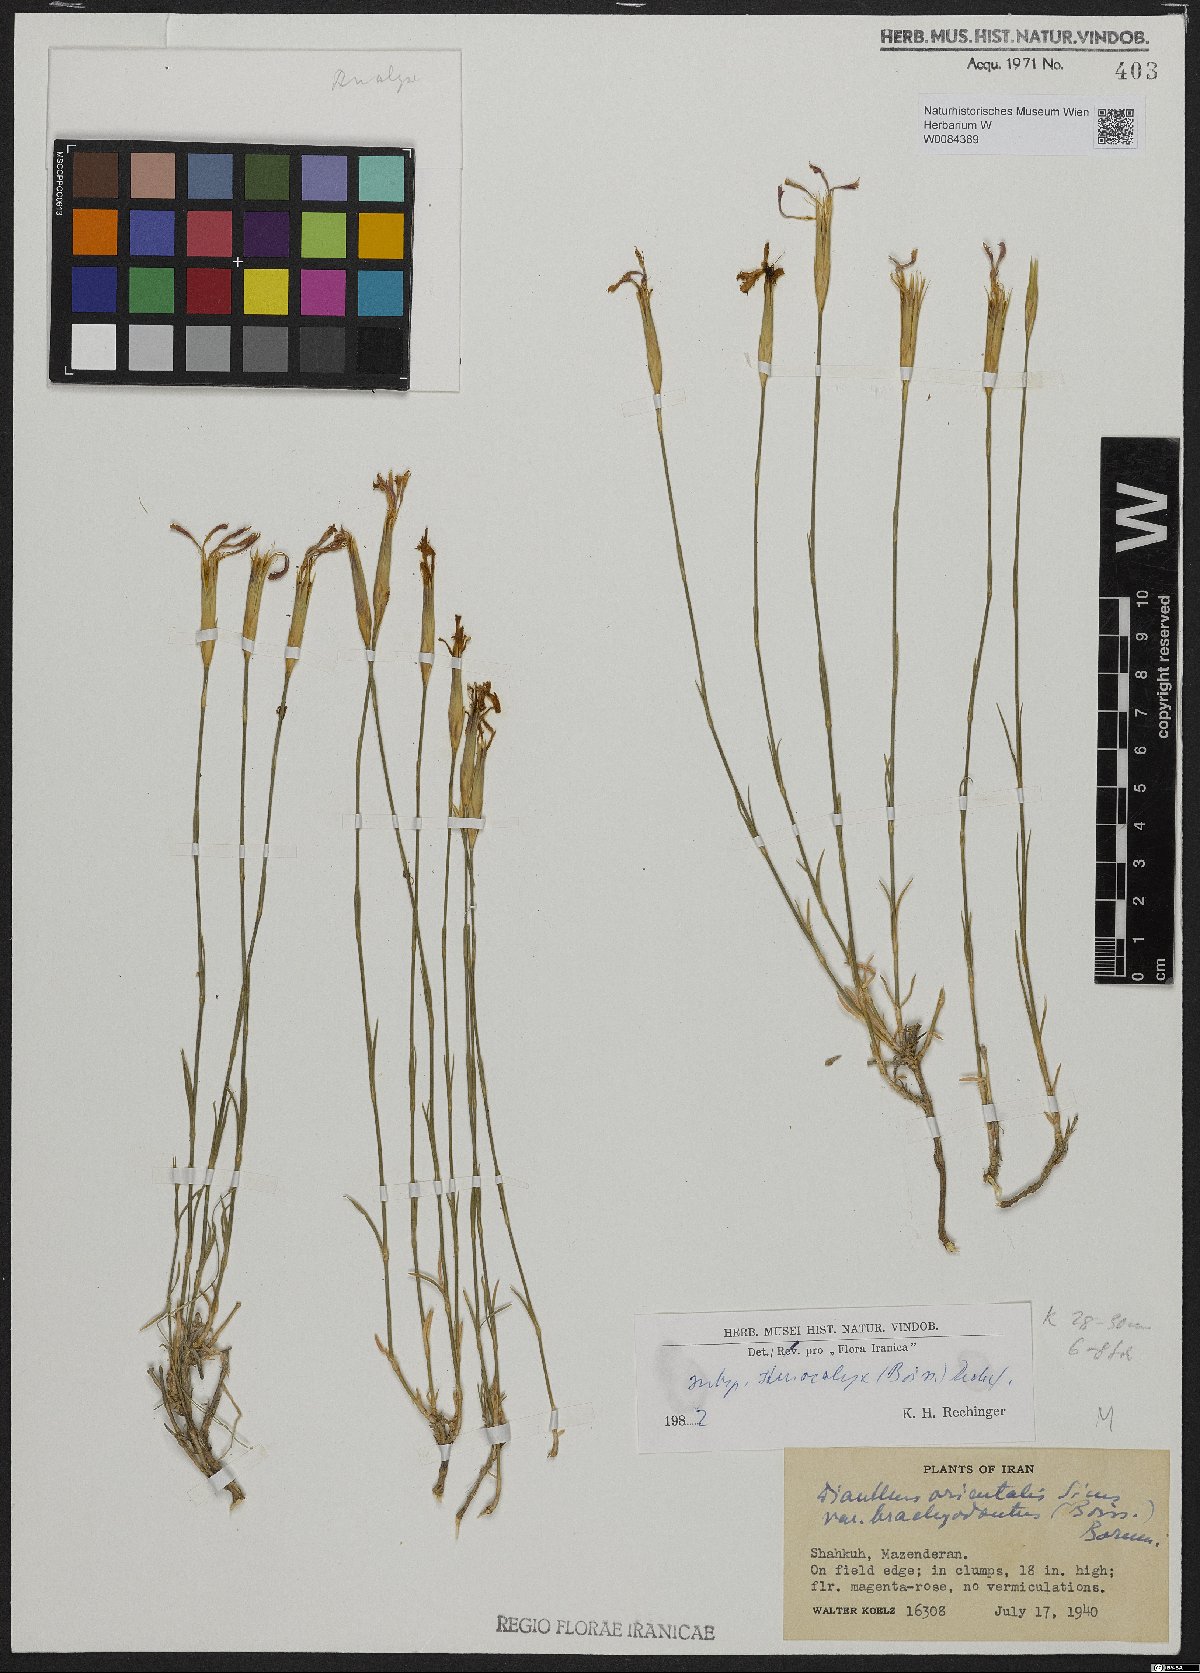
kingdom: Plantae
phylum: Tracheophyta
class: Magnoliopsida
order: Caryophyllales
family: Caryophyllaceae
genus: Dianthus
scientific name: Dianthus orientalis
